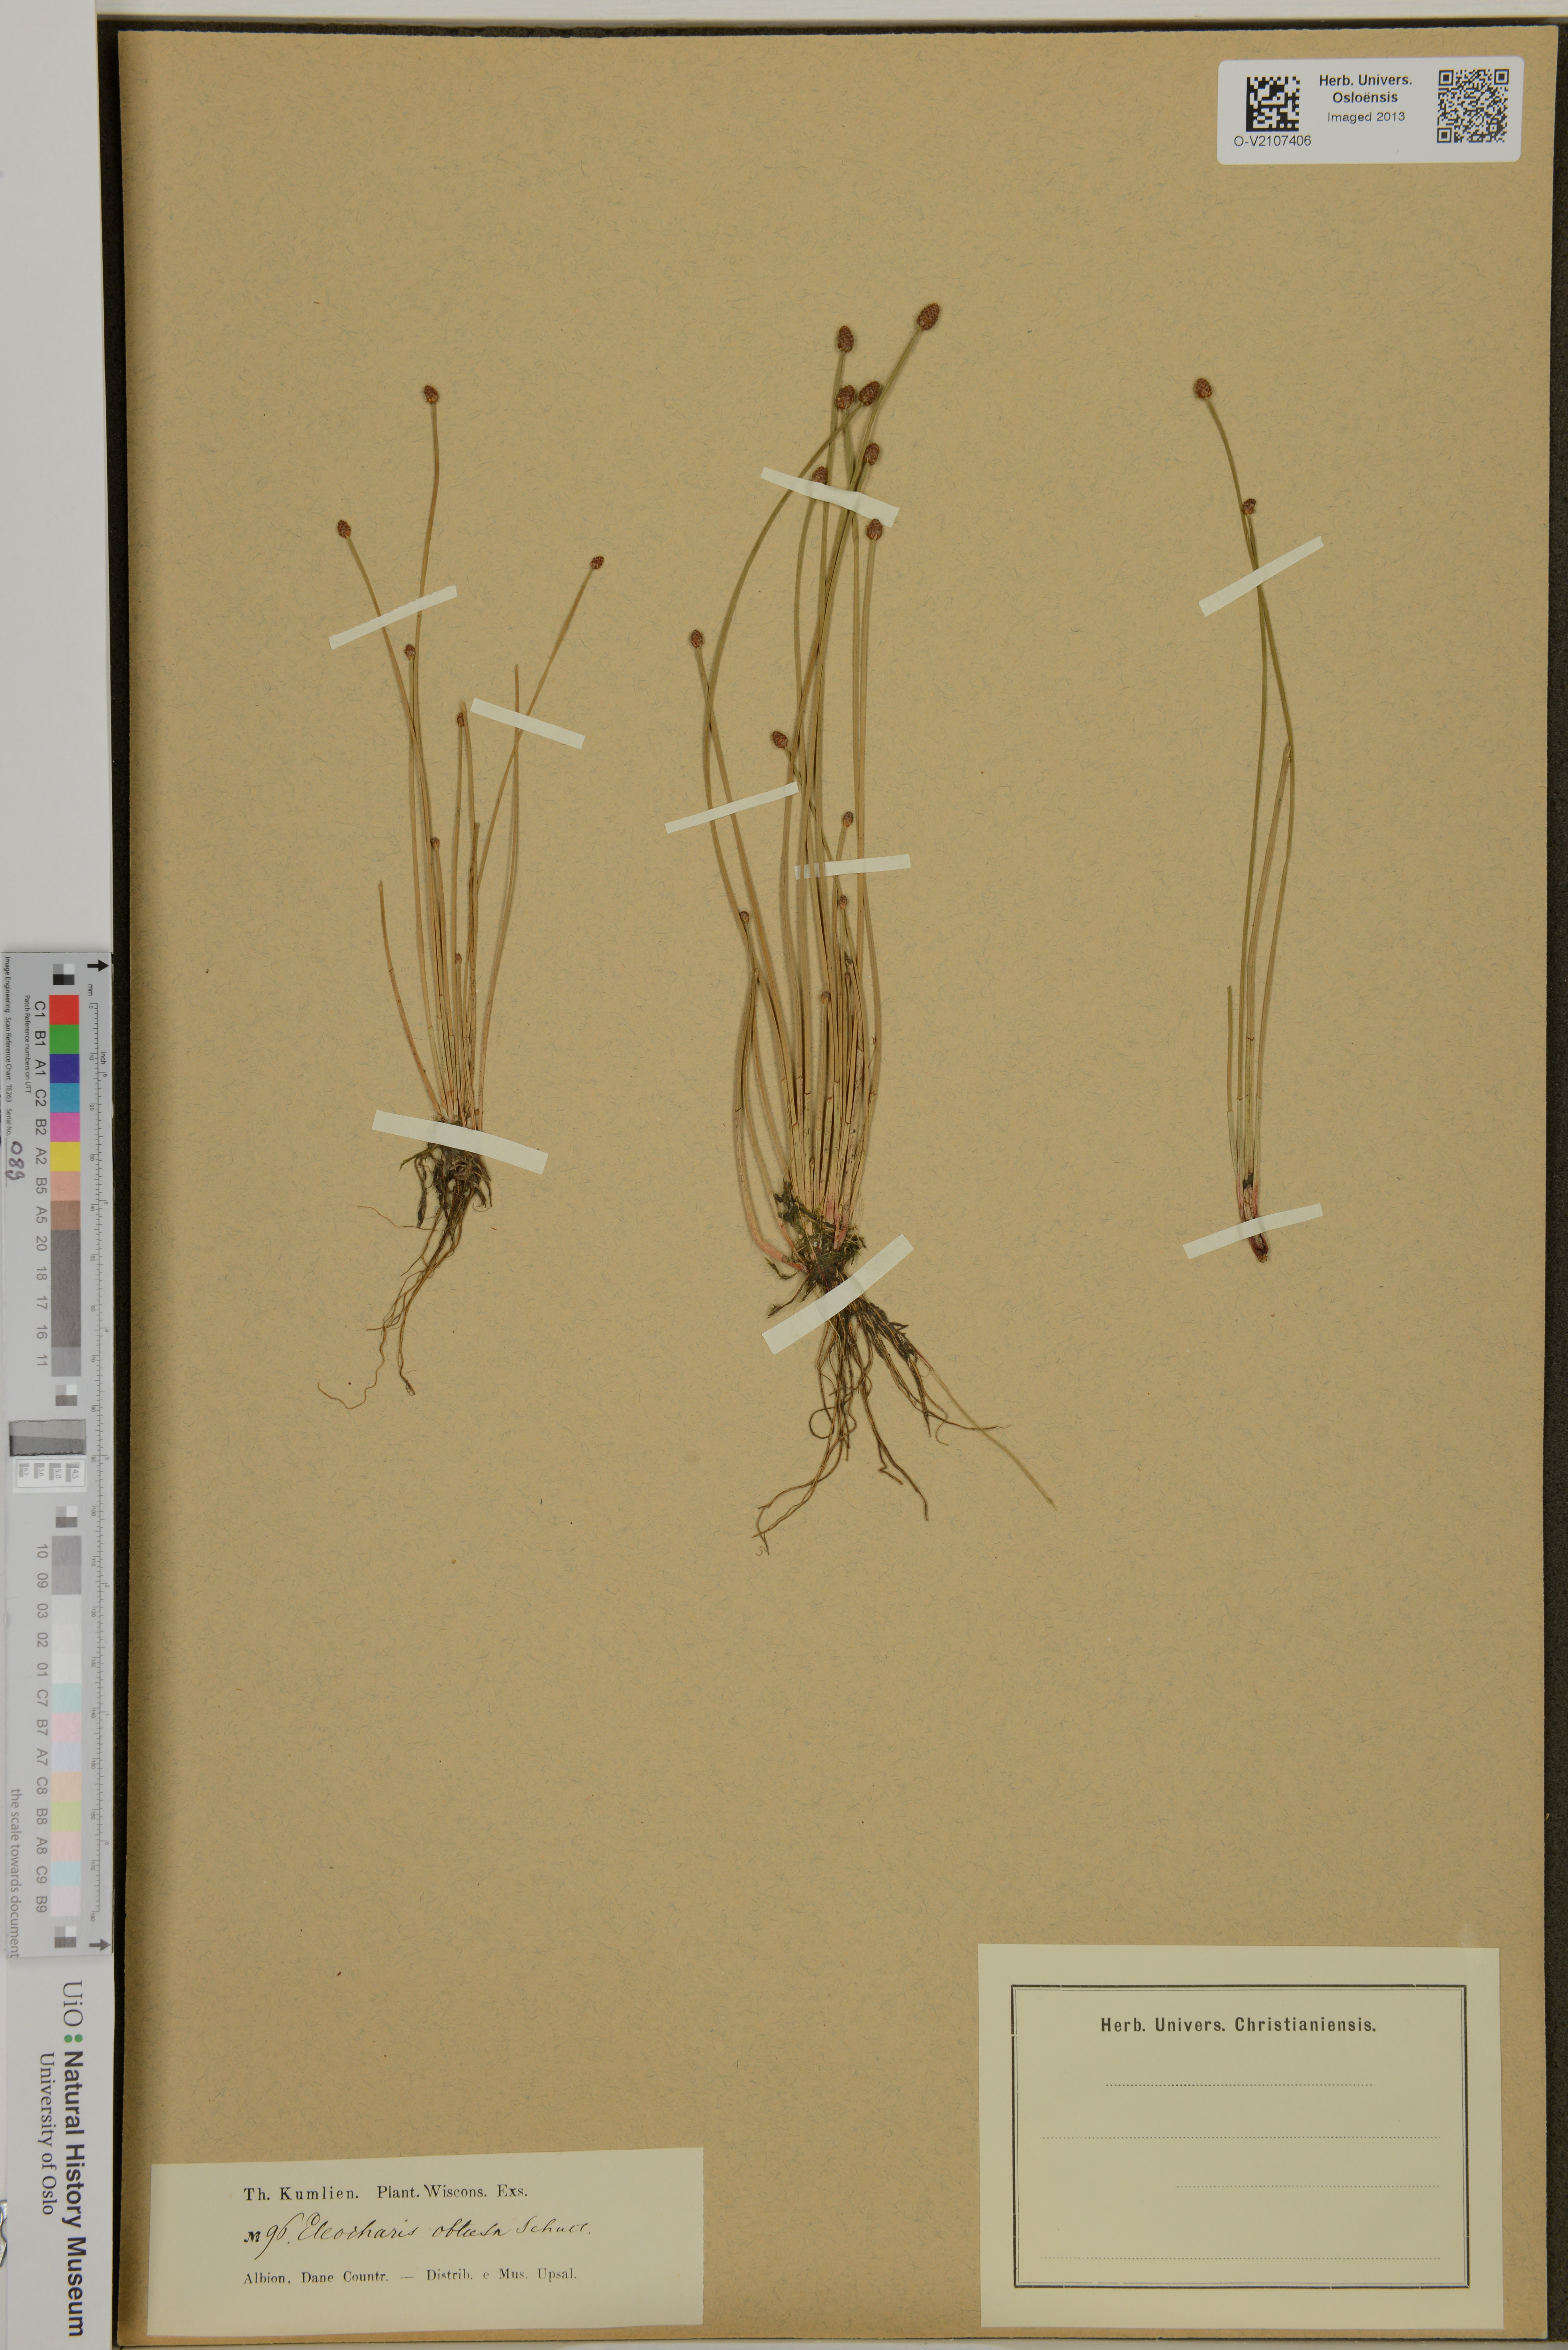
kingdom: Plantae
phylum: Tracheophyta
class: Liliopsida
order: Poales
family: Cyperaceae
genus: Eleocharis
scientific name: Eleocharis obtusa
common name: Blunt spikerush
